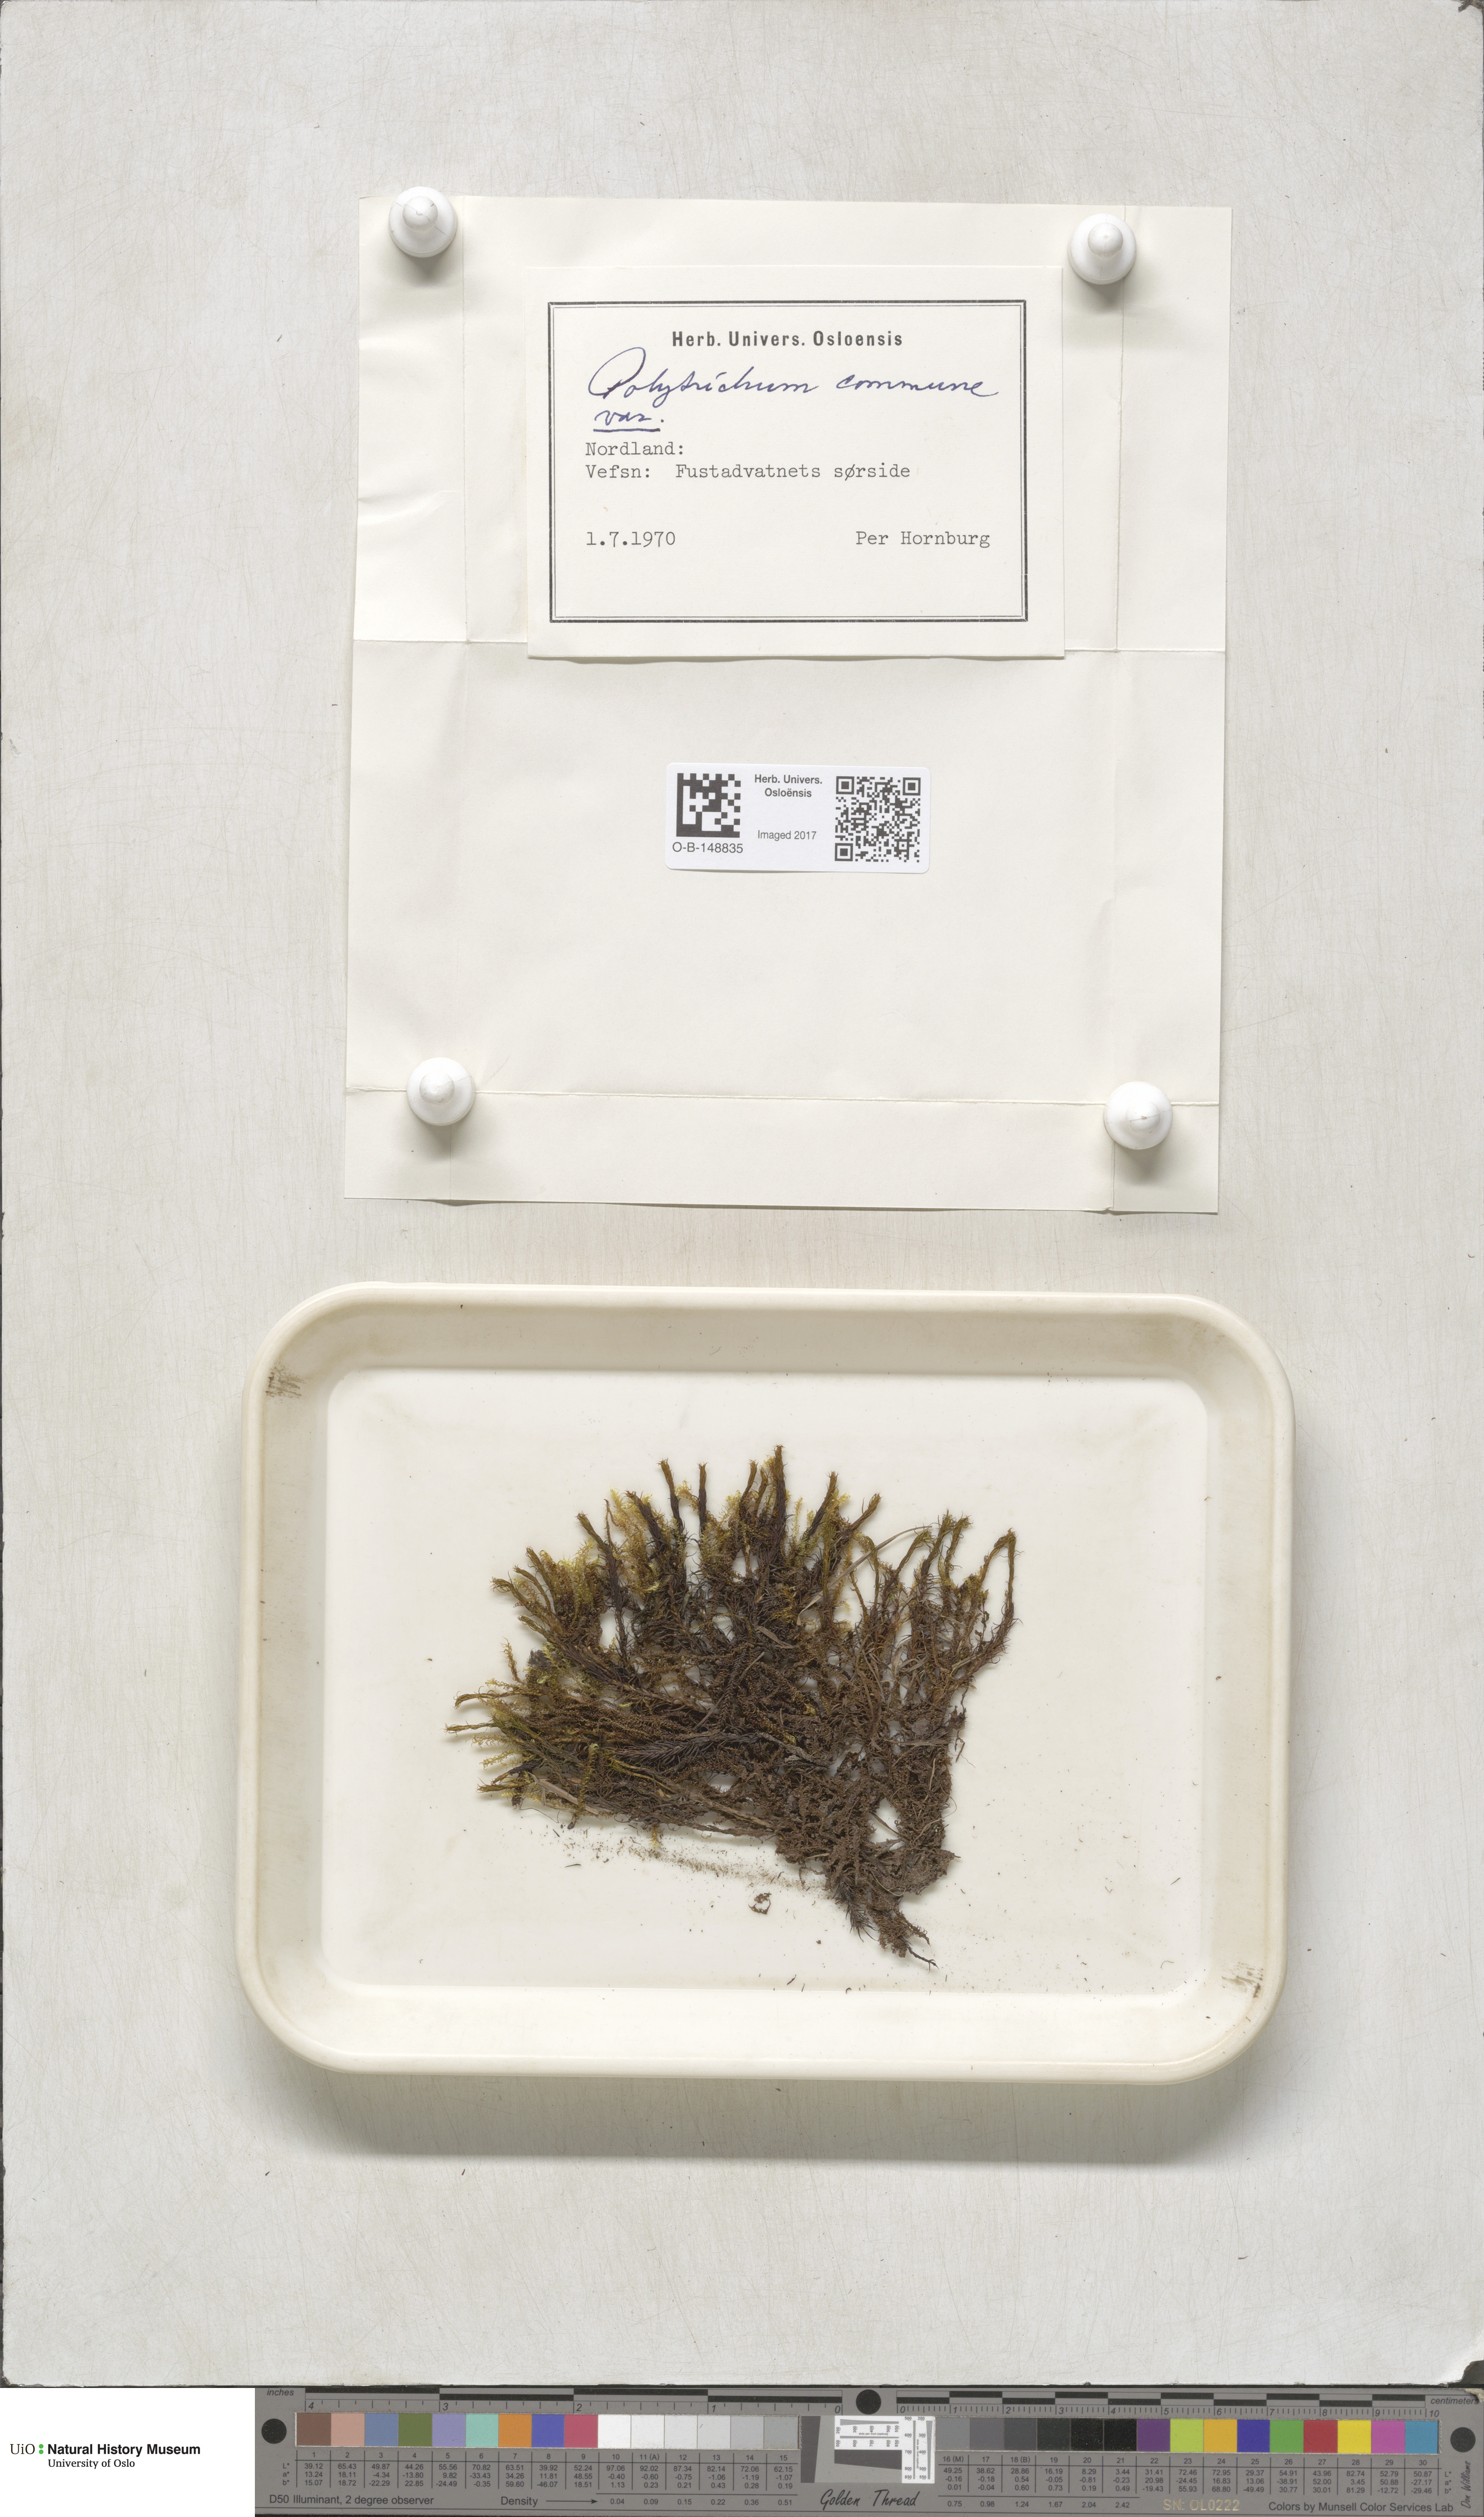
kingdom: Plantae
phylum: Bryophyta
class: Polytrichopsida
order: Polytrichales
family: Polytrichaceae
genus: Polytrichum
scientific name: Polytrichum commune
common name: Common haircap
